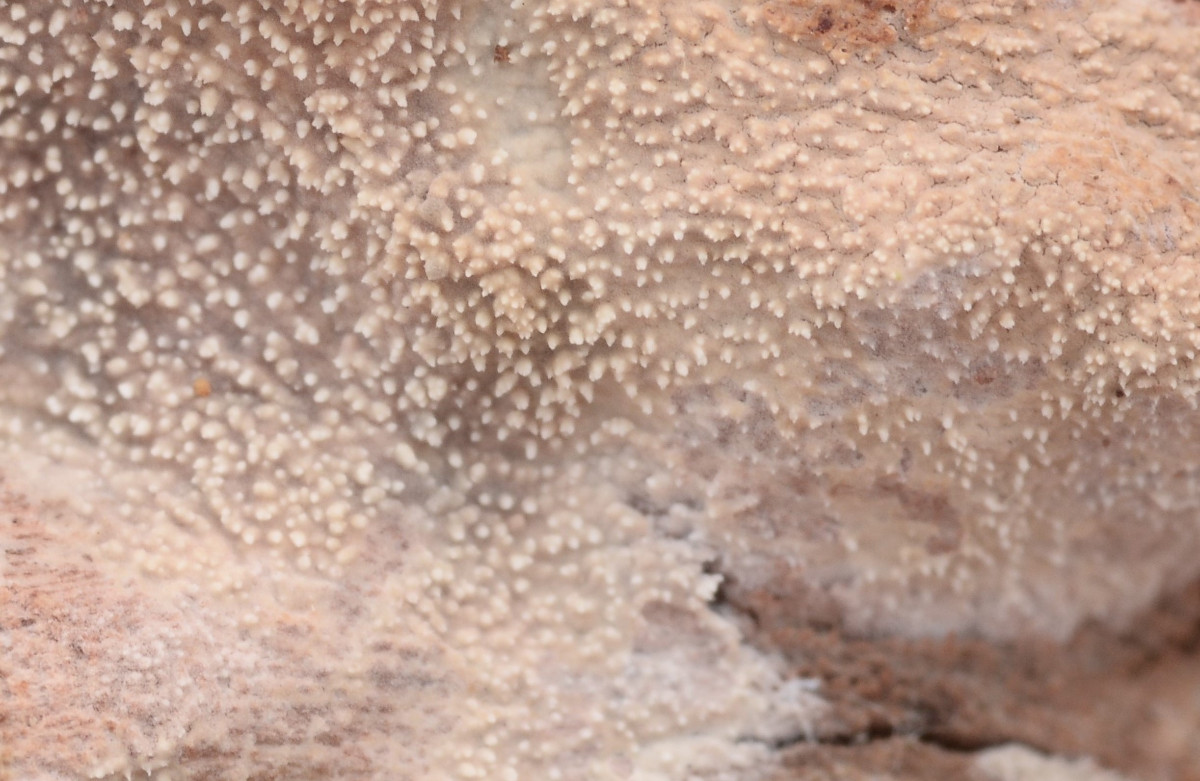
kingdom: Fungi
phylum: Basidiomycota
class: Agaricomycetes
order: Corticiales
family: Corticiaceae
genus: Lyomyces
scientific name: Lyomyces crustosus
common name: vortet hyldehinde
